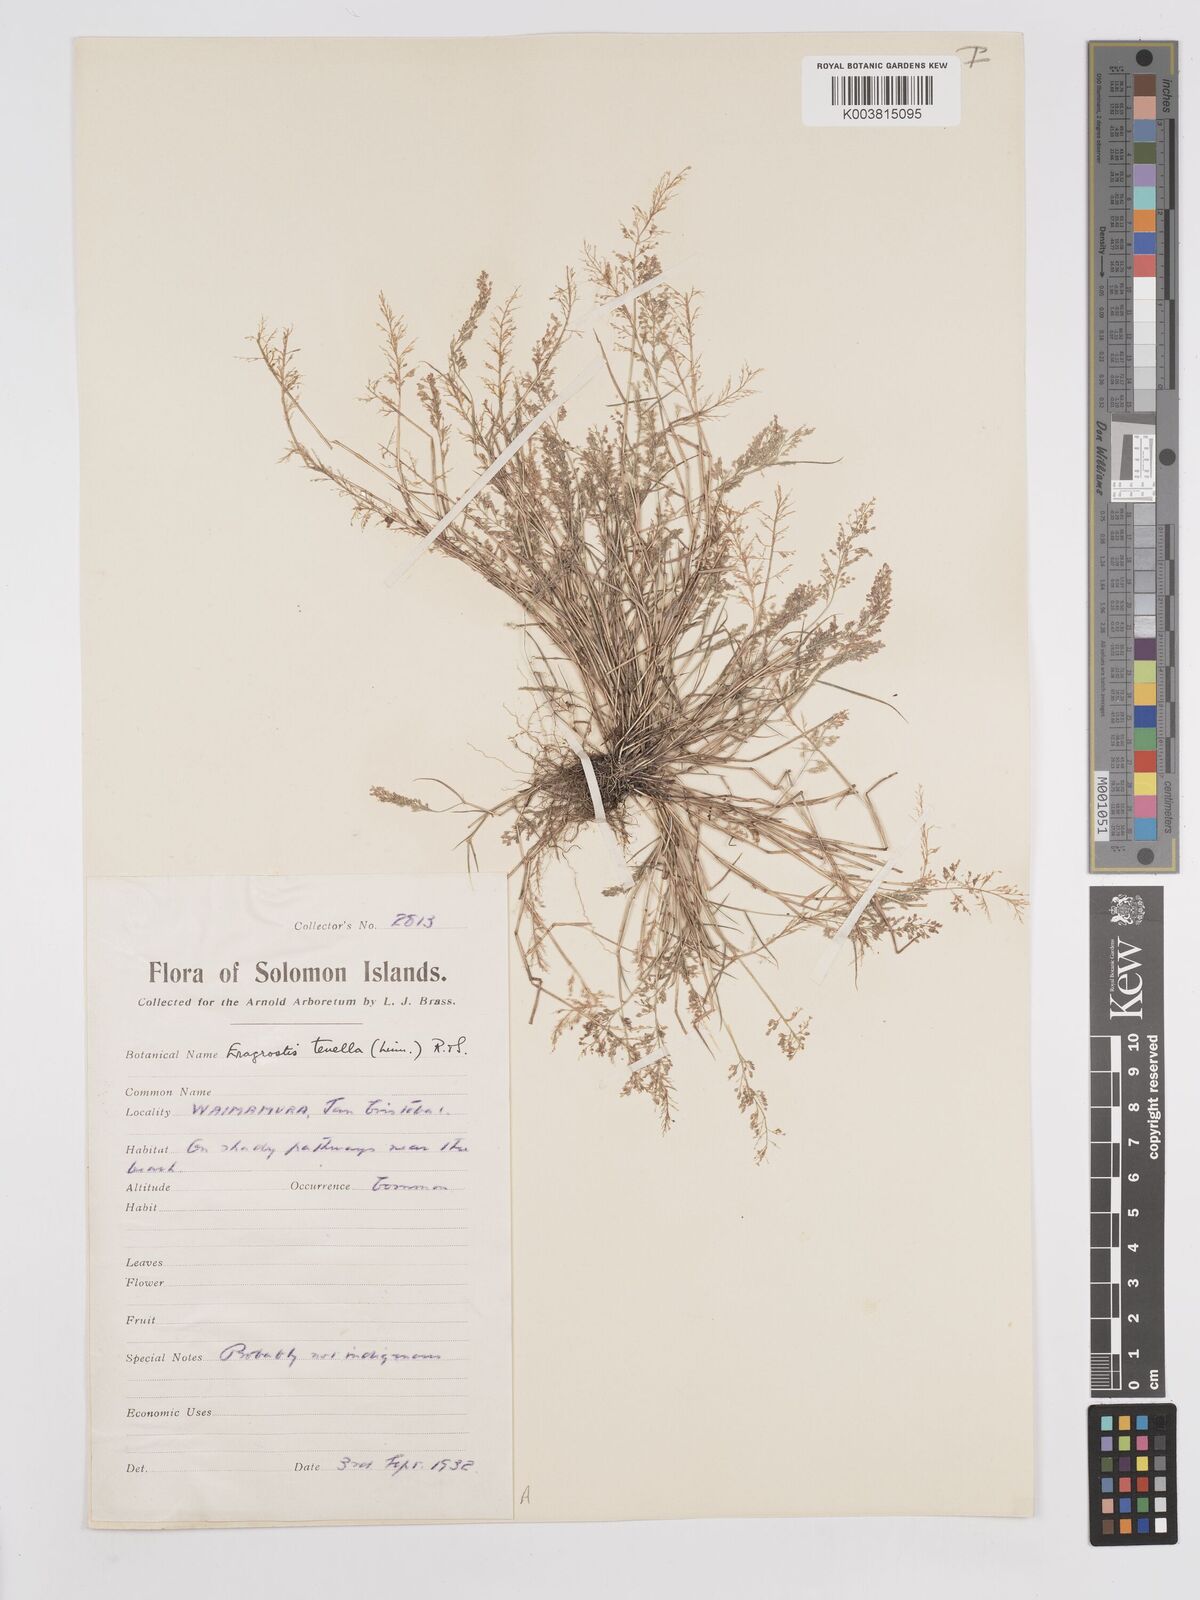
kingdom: Plantae
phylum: Tracheophyta
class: Liliopsida
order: Poales
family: Poaceae
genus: Eragrostis
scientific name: Eragrostis tenella
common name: Japanese lovegrass
